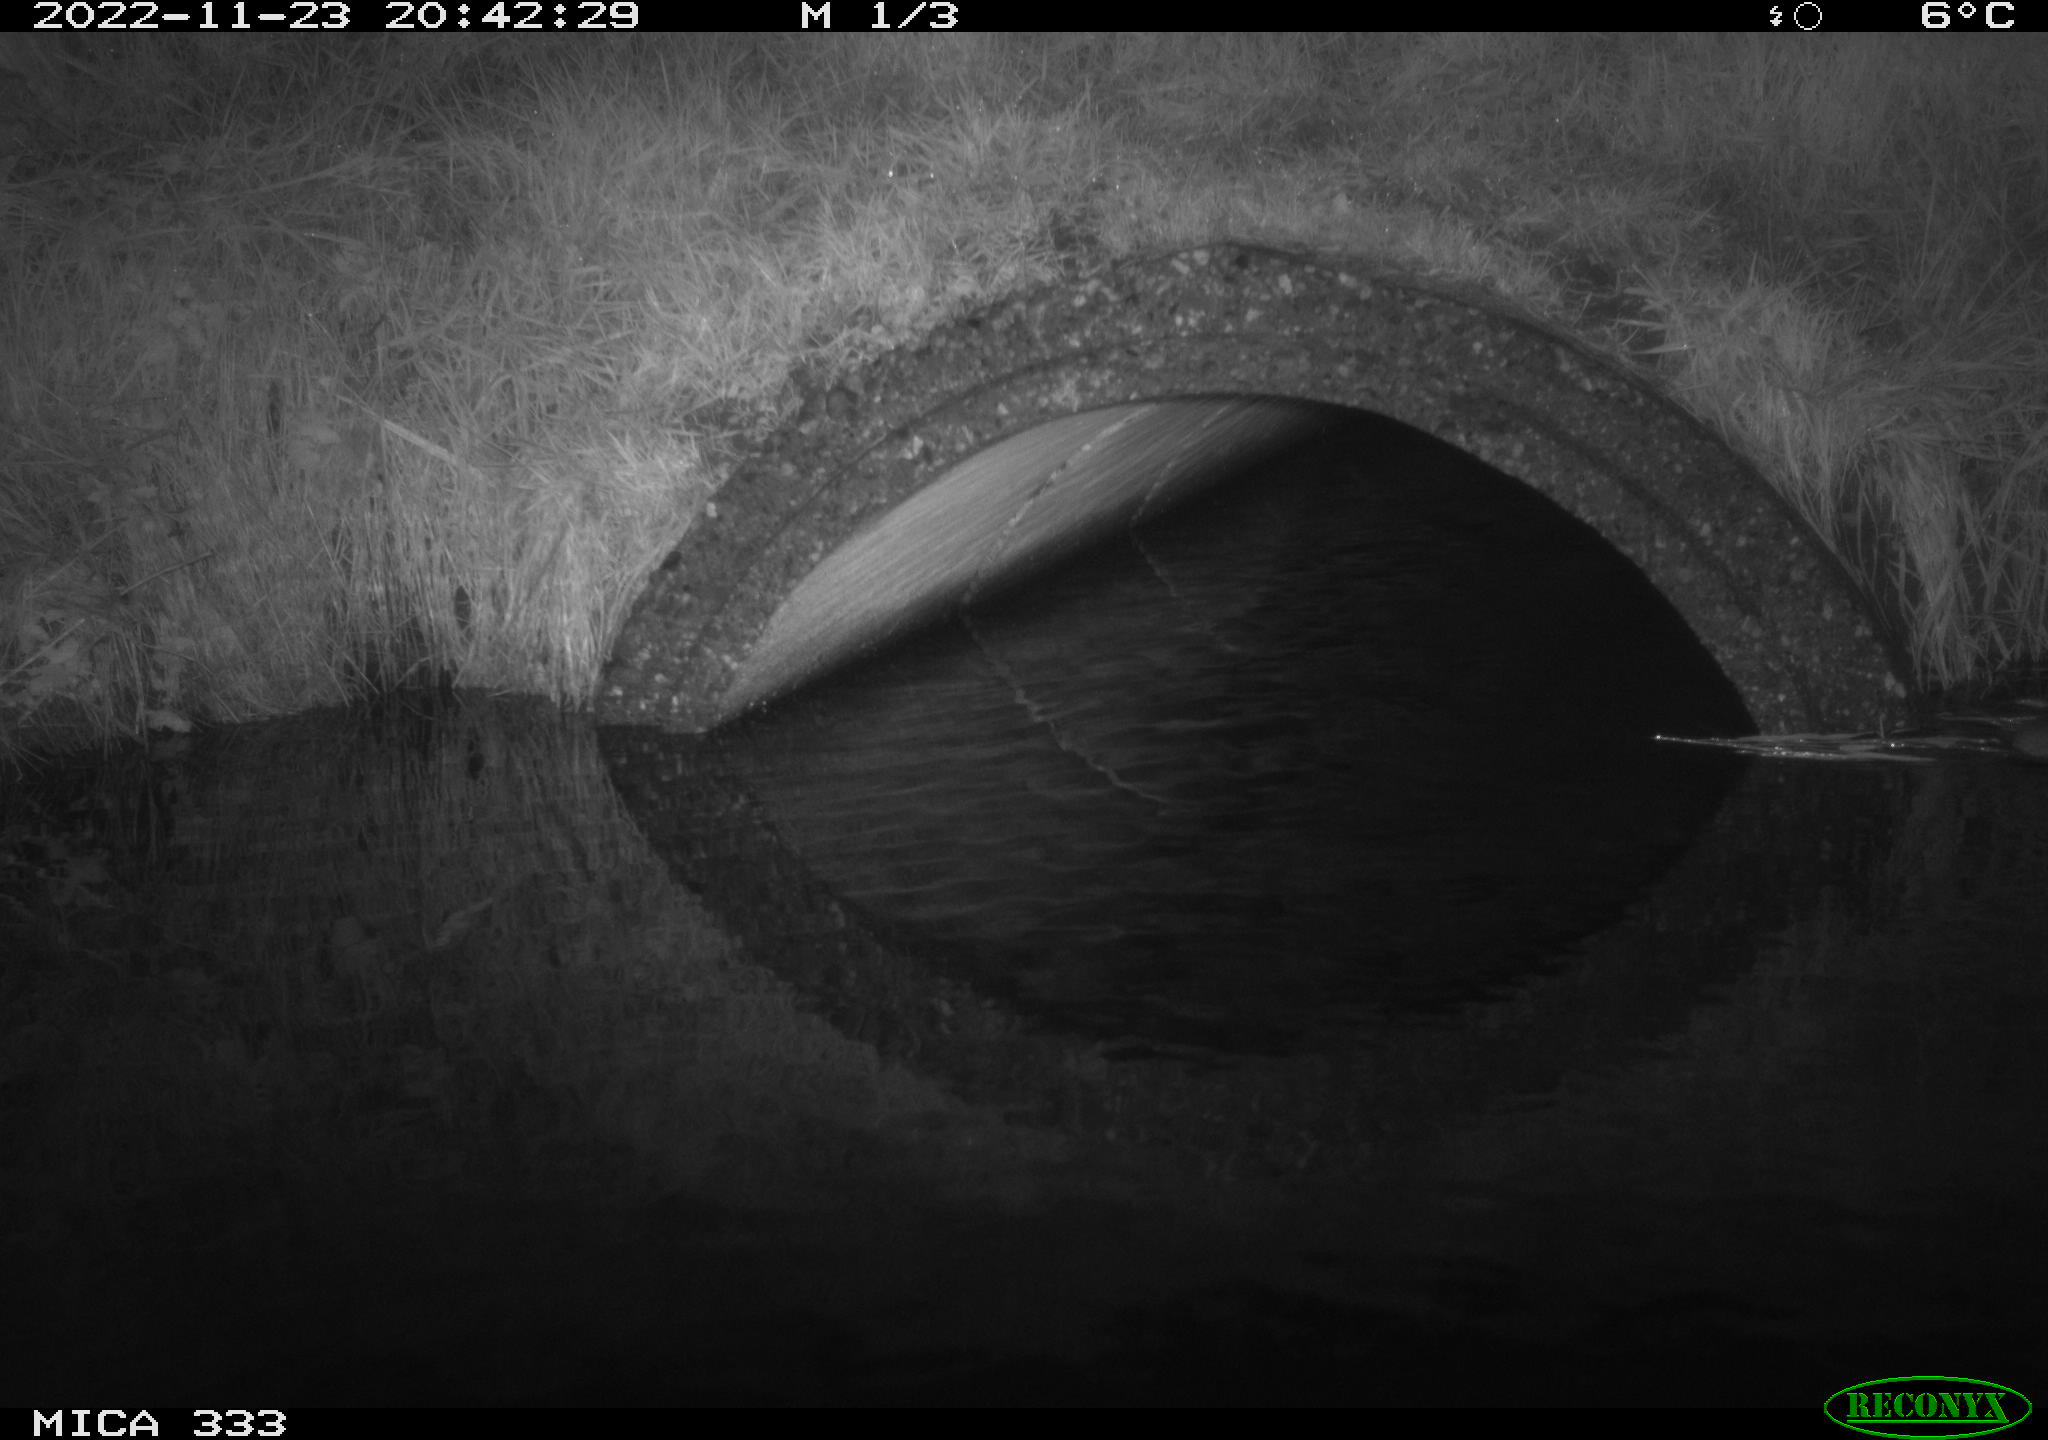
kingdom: Animalia
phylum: Chordata
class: Mammalia
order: Rodentia
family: Muridae
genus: Rattus
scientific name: Rattus norvegicus
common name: Brown rat
